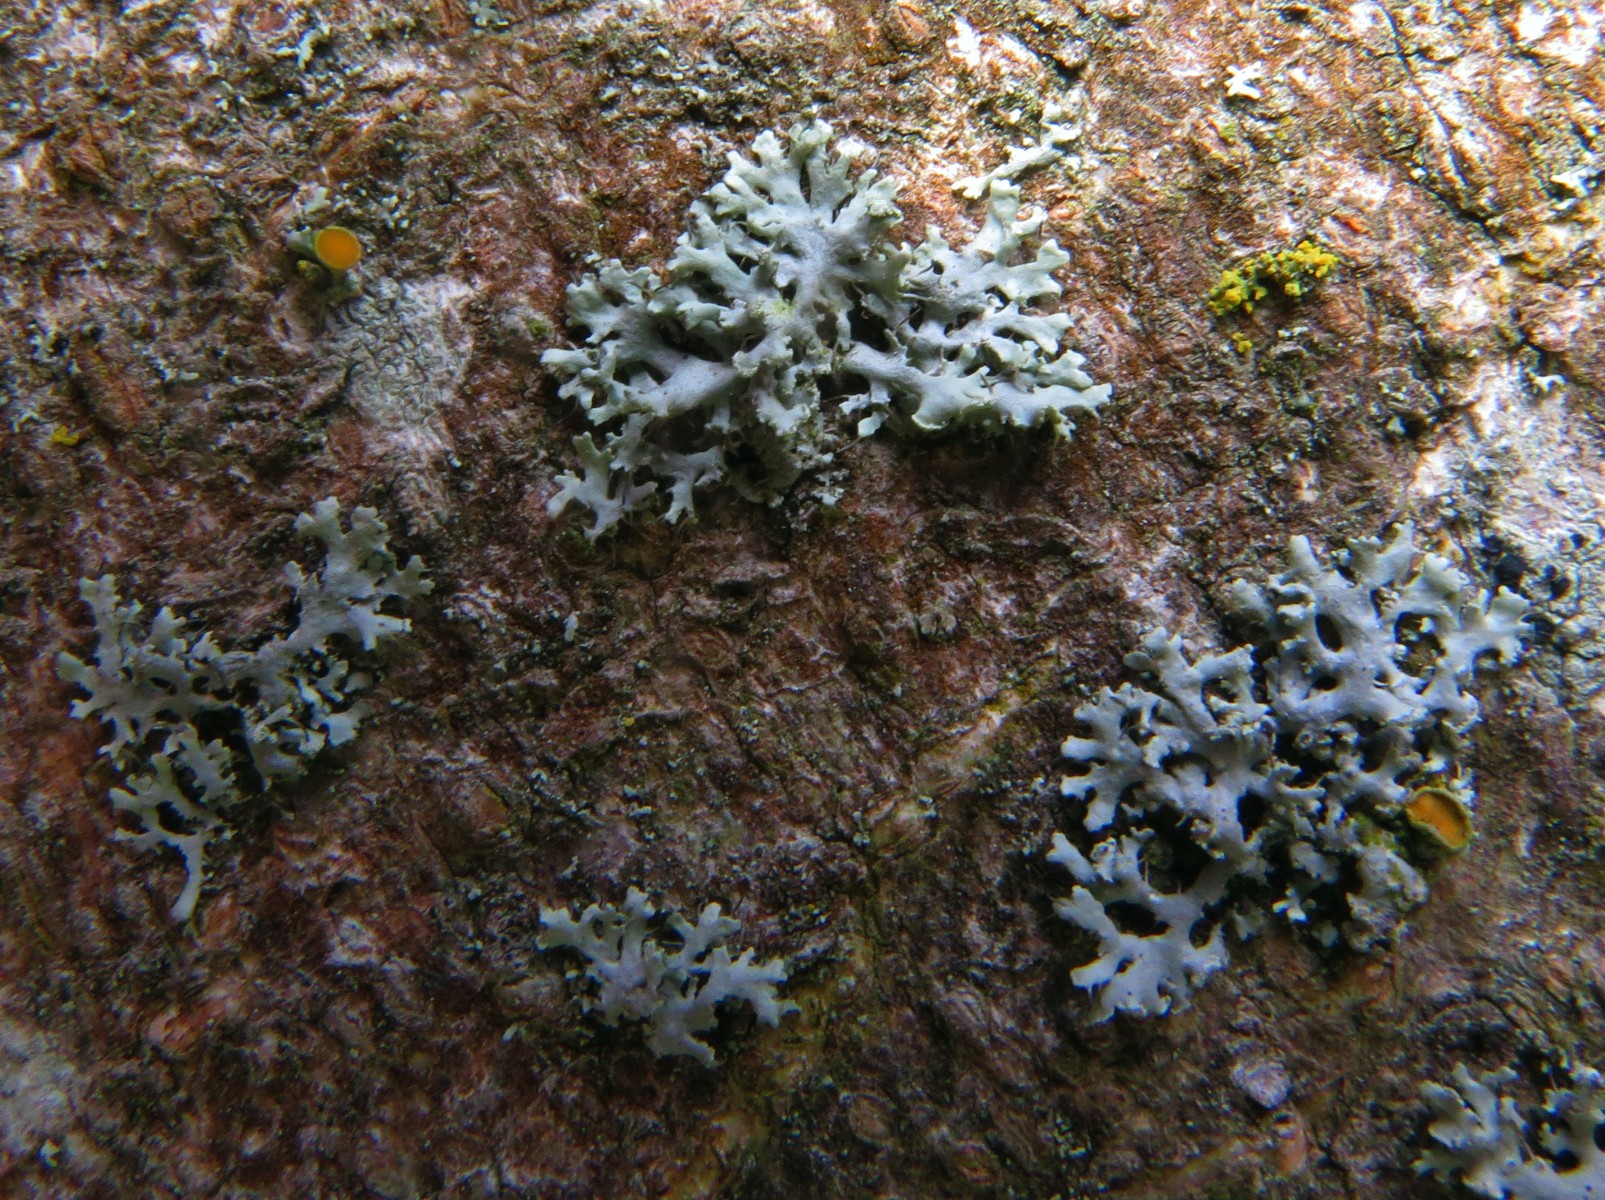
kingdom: Fungi
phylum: Ascomycota
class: Lecanoromycetes
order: Caliciales
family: Physciaceae
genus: Physcia
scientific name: Physcia tenella
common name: spæd rosetlav
